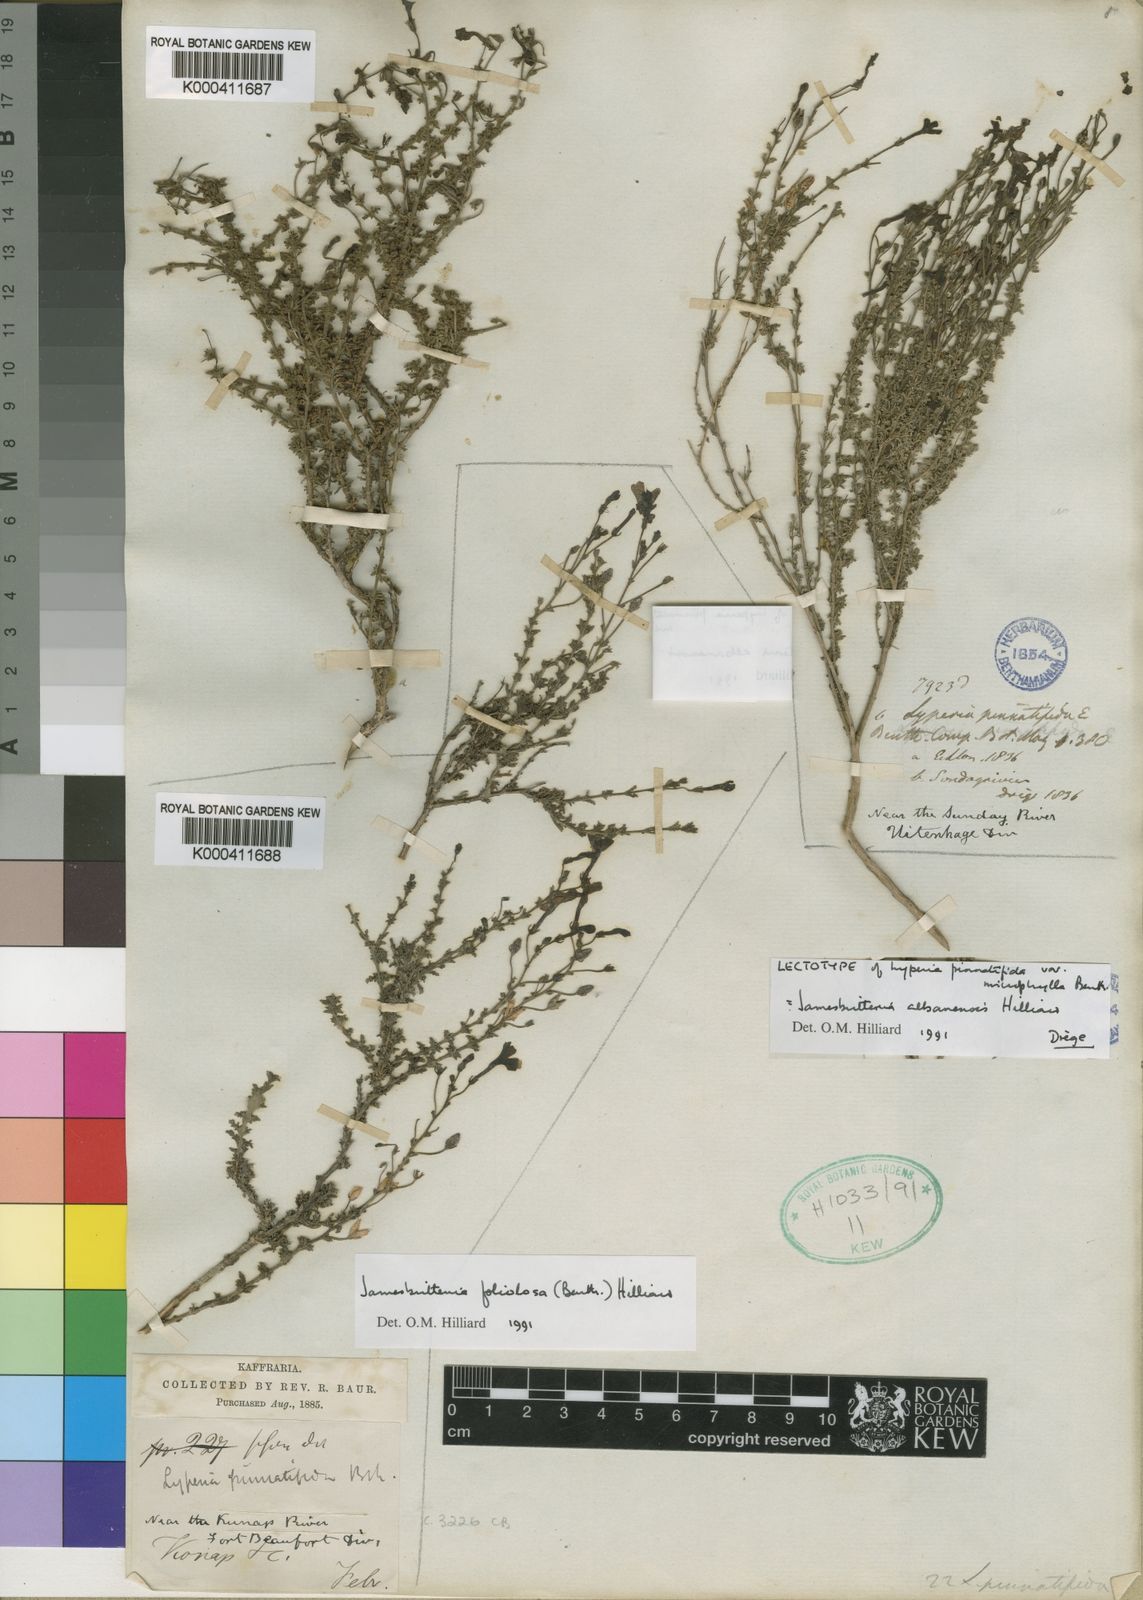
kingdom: Plantae
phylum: Tracheophyta
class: Magnoliopsida
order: Lamiales
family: Scrophulariaceae
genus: Jamesbrittenia
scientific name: Jamesbrittenia albanensis
